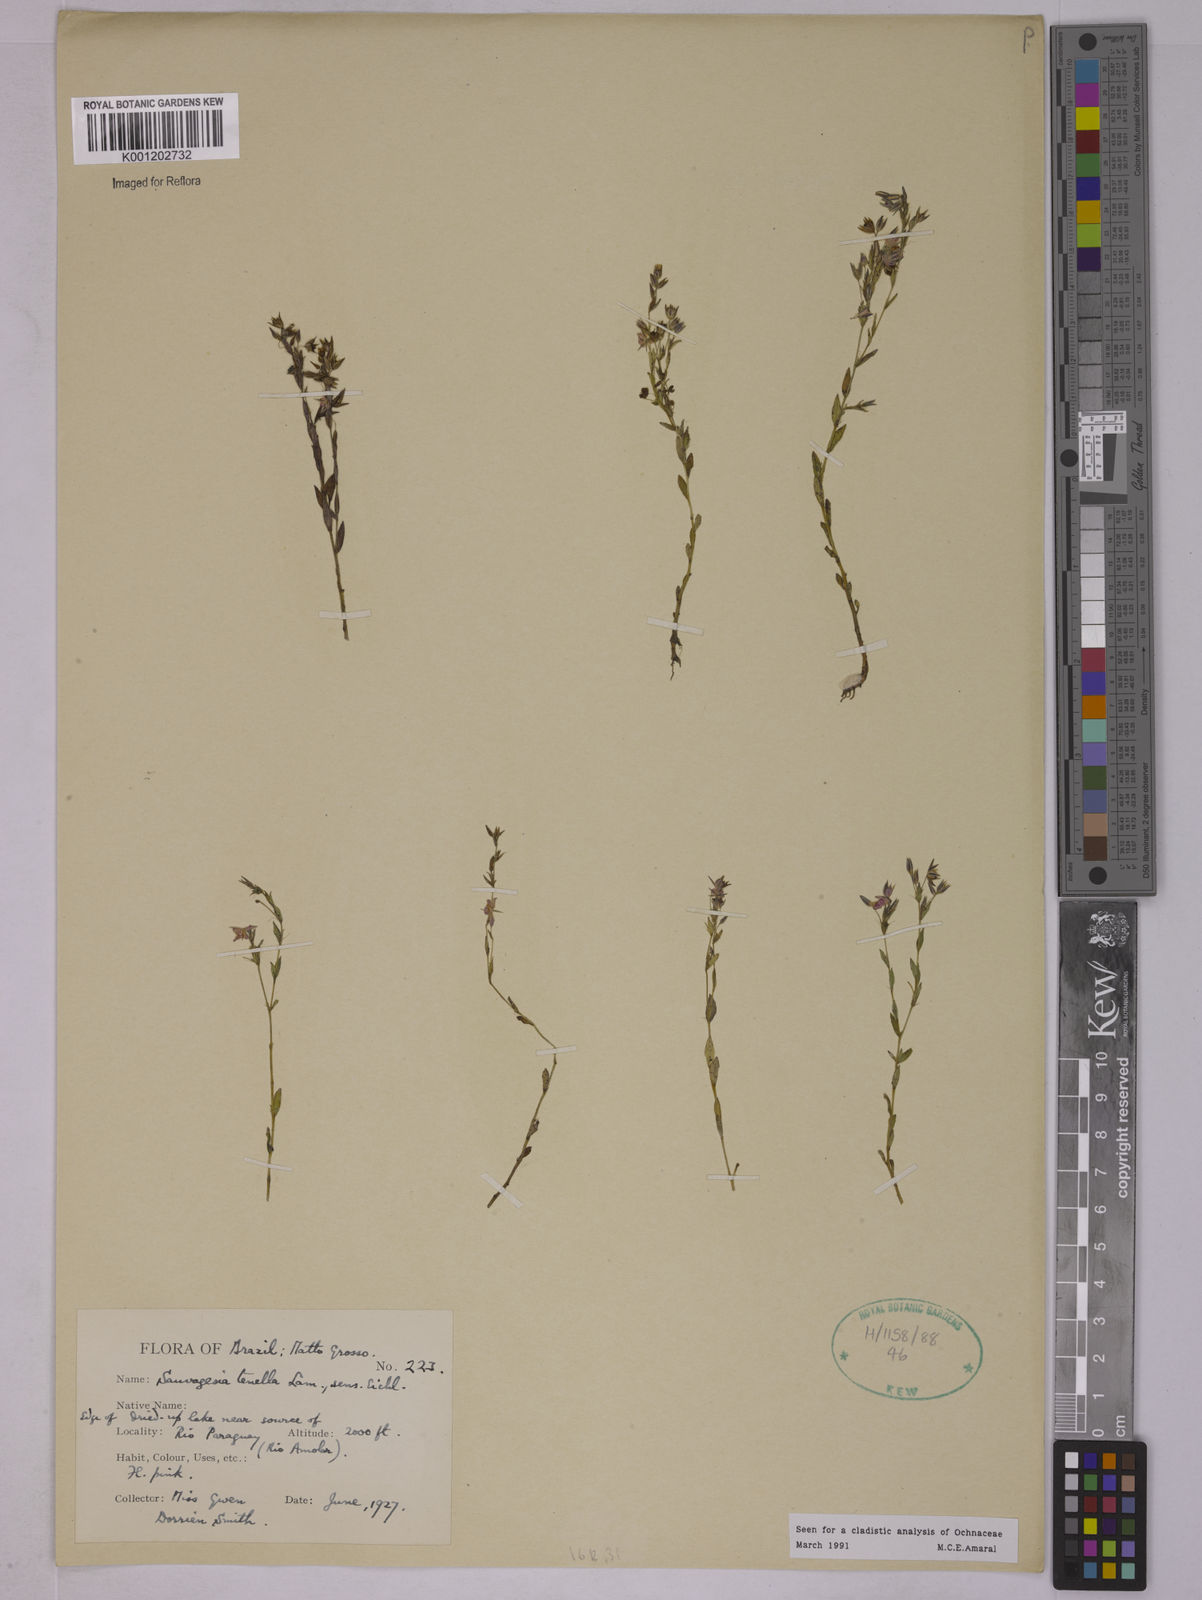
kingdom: Plantae
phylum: Tracheophyta
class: Magnoliopsida
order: Malpighiales
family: Ochnaceae
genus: Sauvagesia
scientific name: Sauvagesia tenella
